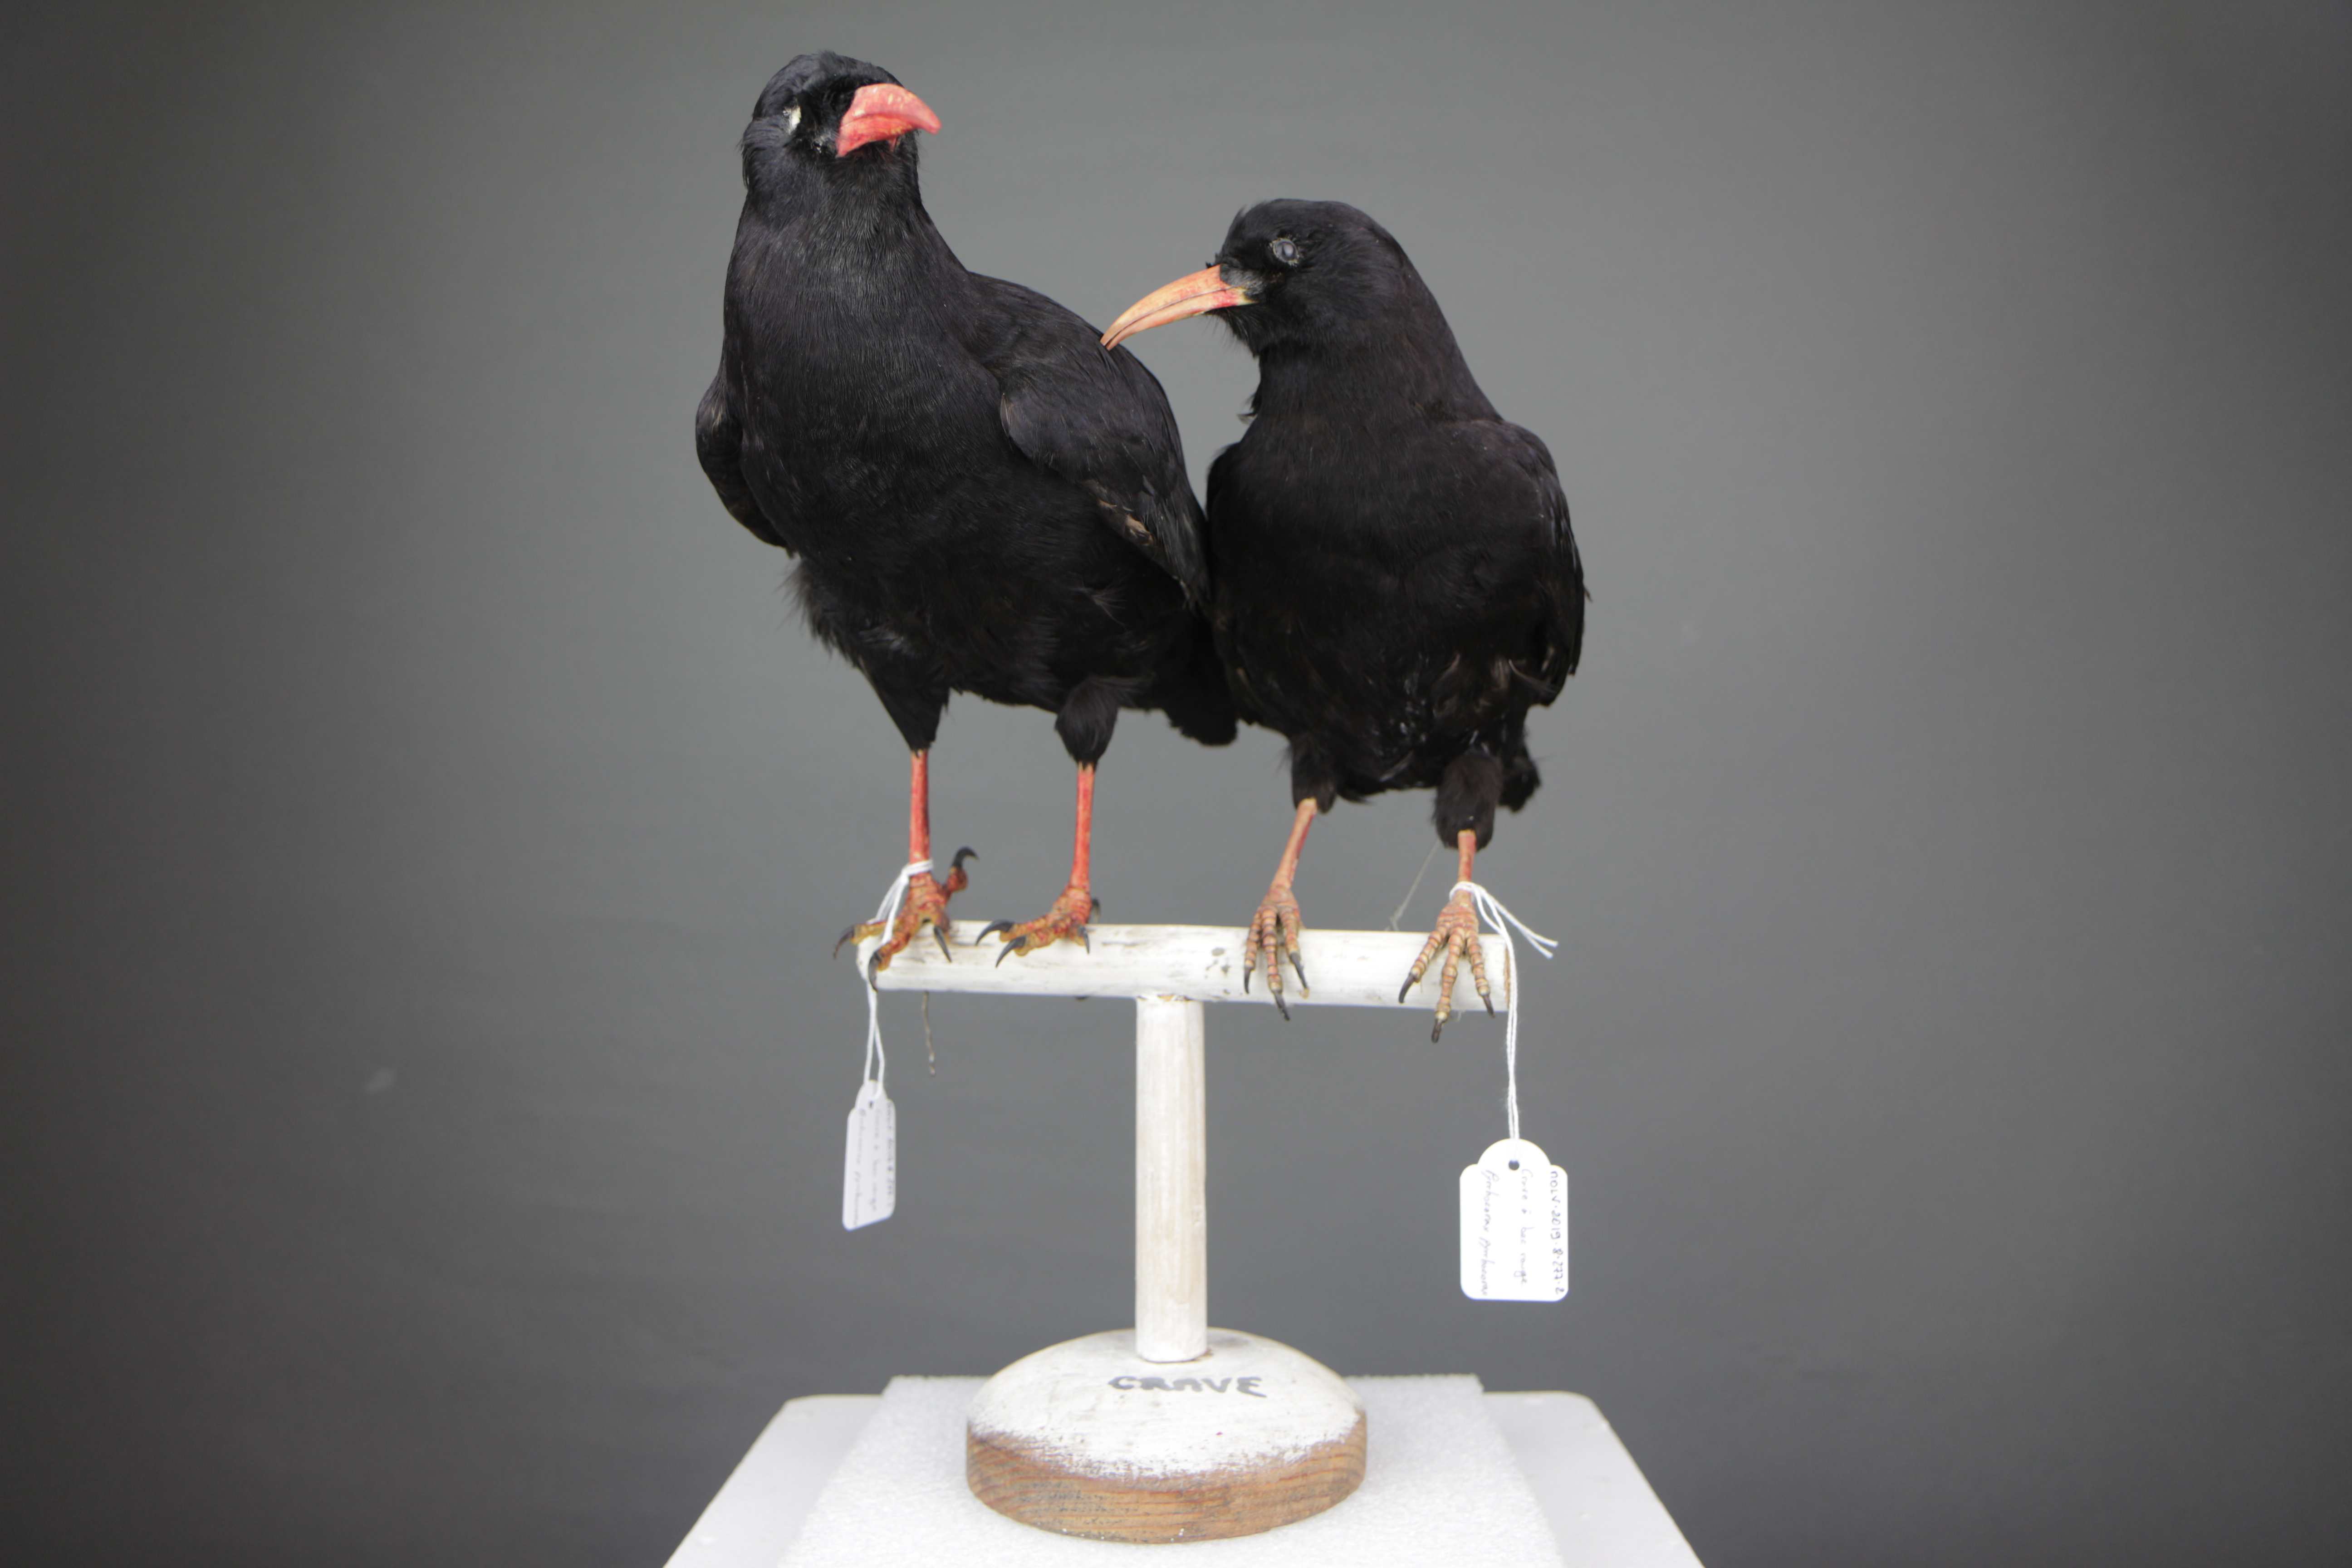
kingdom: Animalia
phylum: Chordata
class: Aves
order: Passeriformes
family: Corvidae
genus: Pyrrhocorax
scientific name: Pyrrhocorax pyrrhocorax
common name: Red-billed chough
